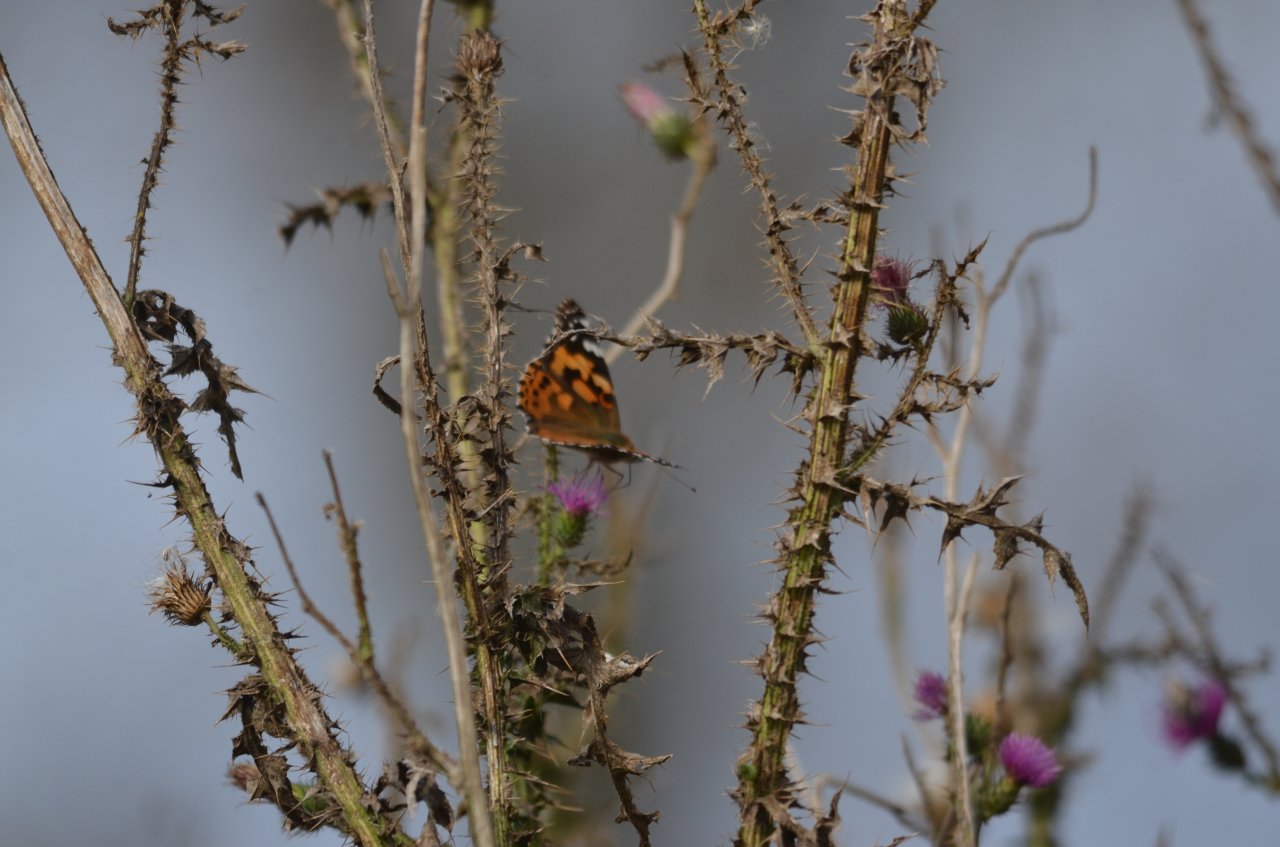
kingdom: Animalia
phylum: Arthropoda
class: Insecta
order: Lepidoptera
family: Nymphalidae
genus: Vanessa
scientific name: Vanessa cardui
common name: Painted Lady
